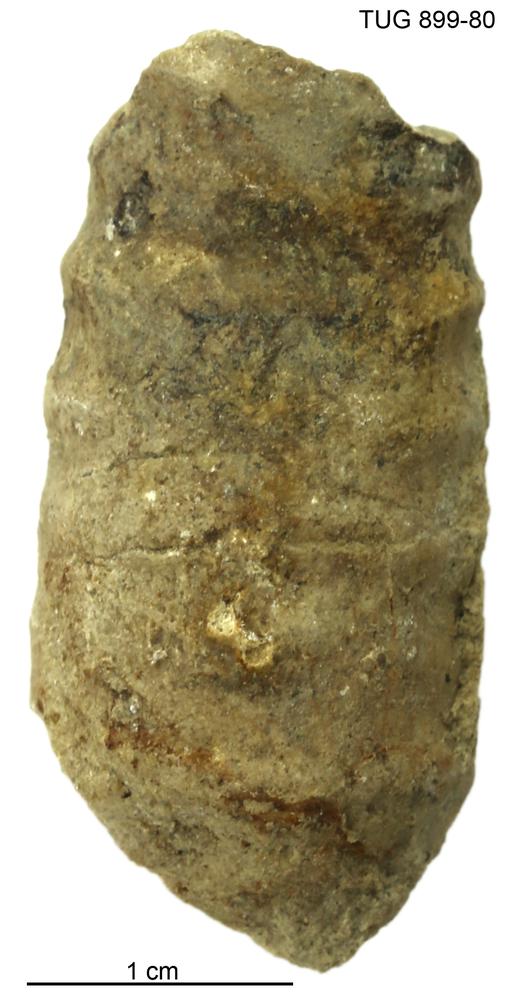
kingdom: Animalia
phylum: Mollusca
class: Cephalopoda
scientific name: Cephalopoda
